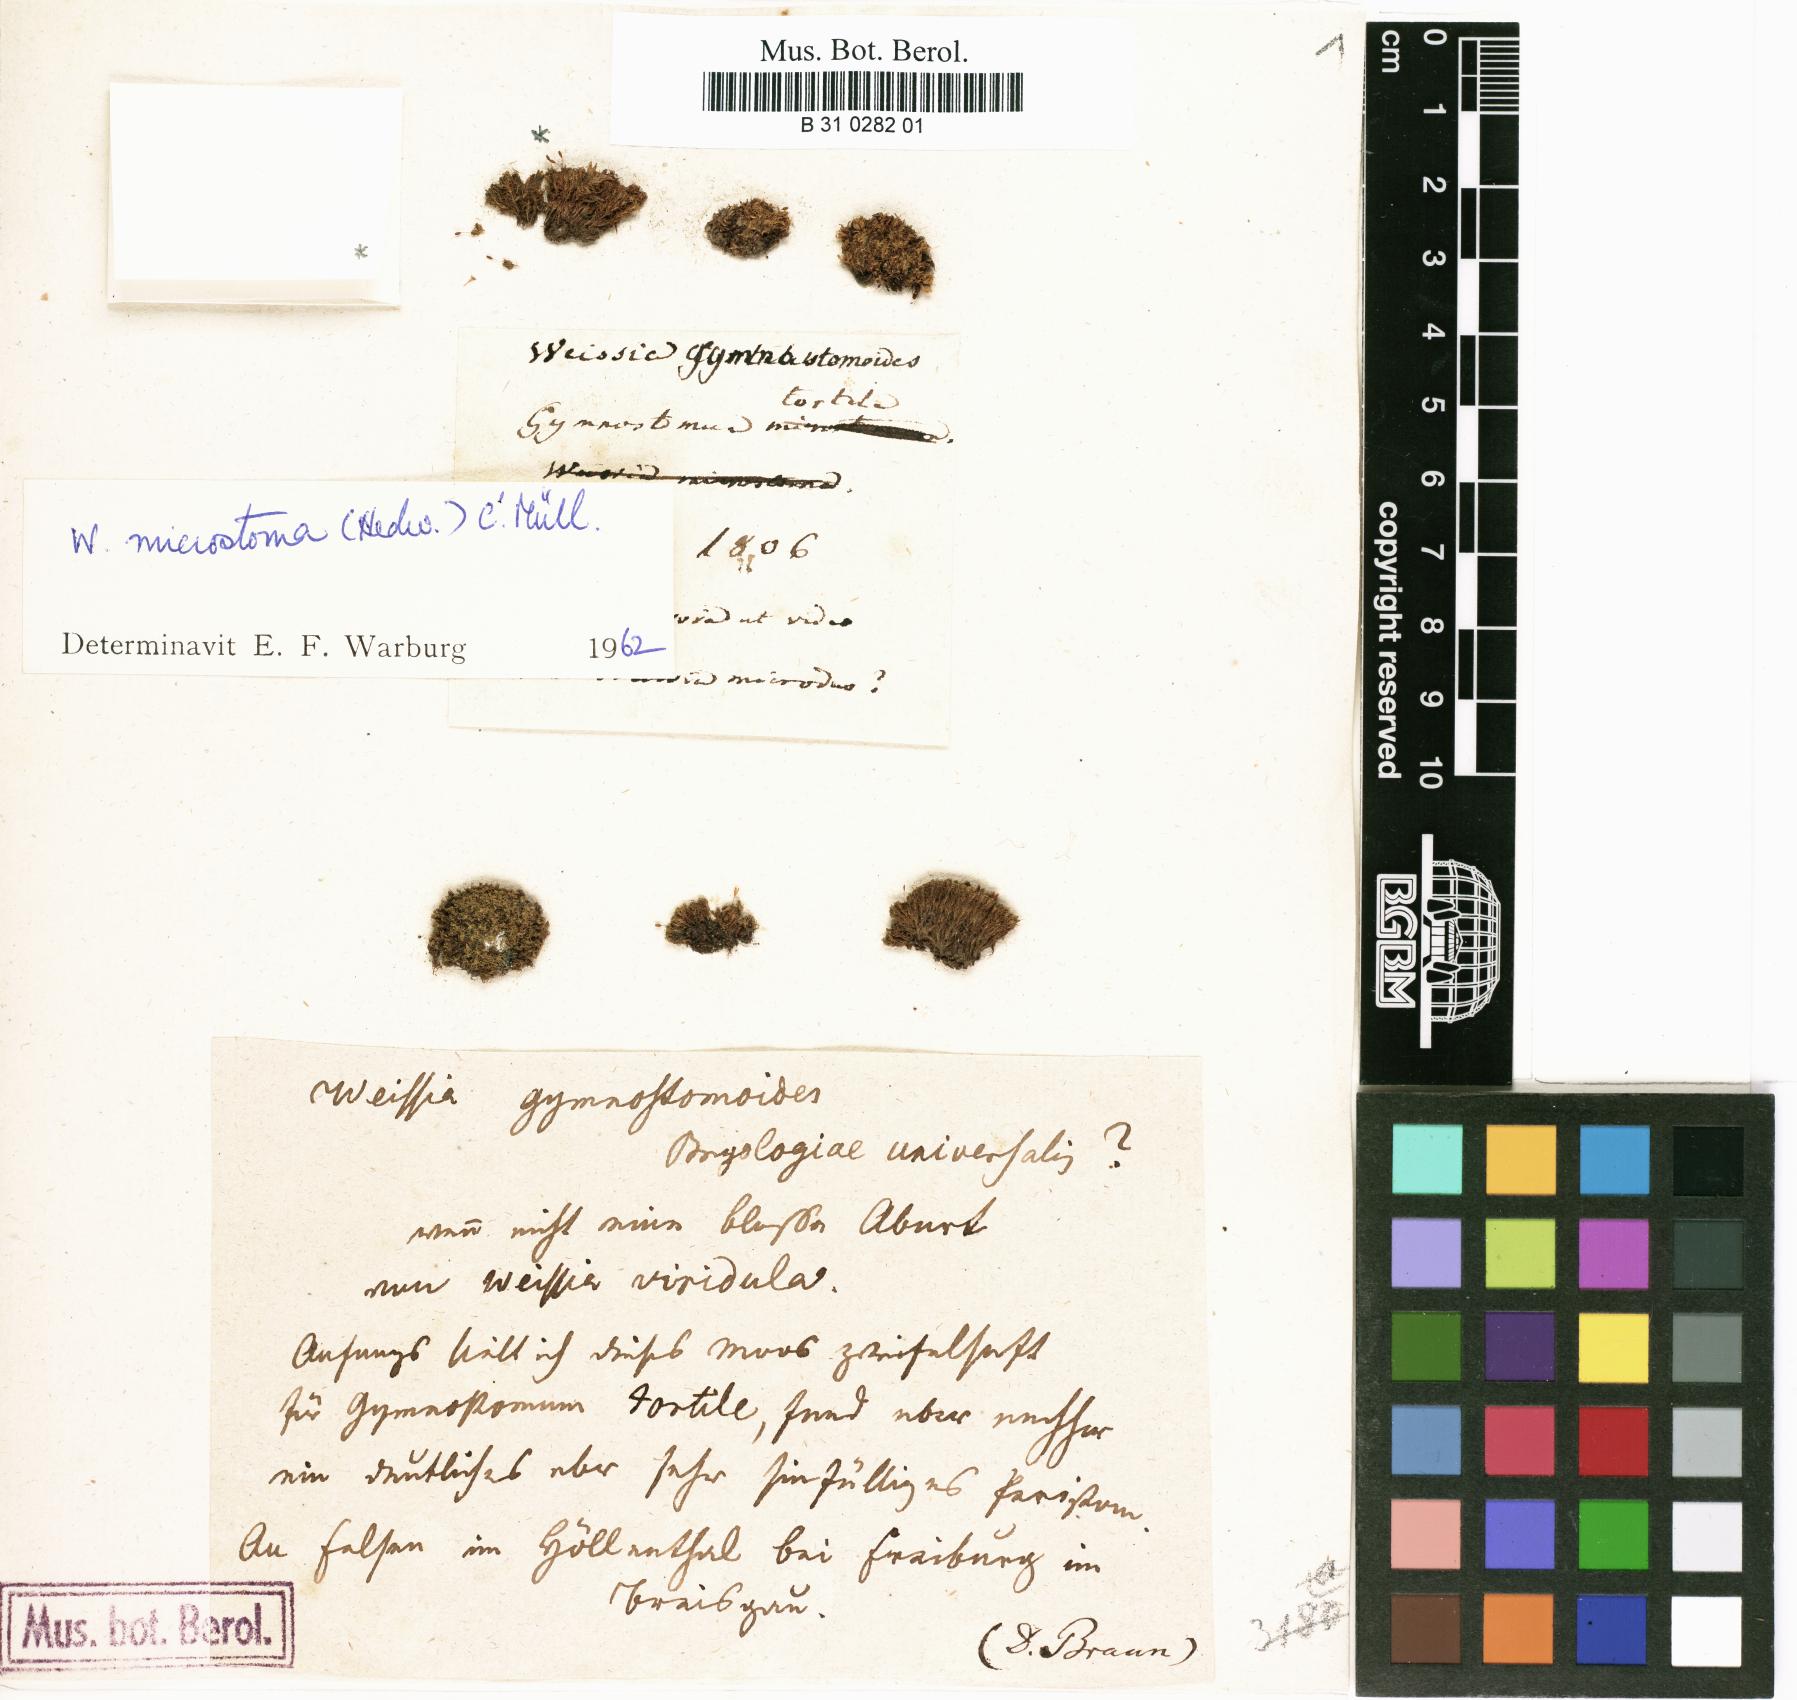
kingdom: Plantae
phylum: Bryophyta
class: Bryopsida
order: Pottiales
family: Pottiaceae
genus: Weissia
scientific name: Weissia controversa
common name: Green-tufted stubble moss
